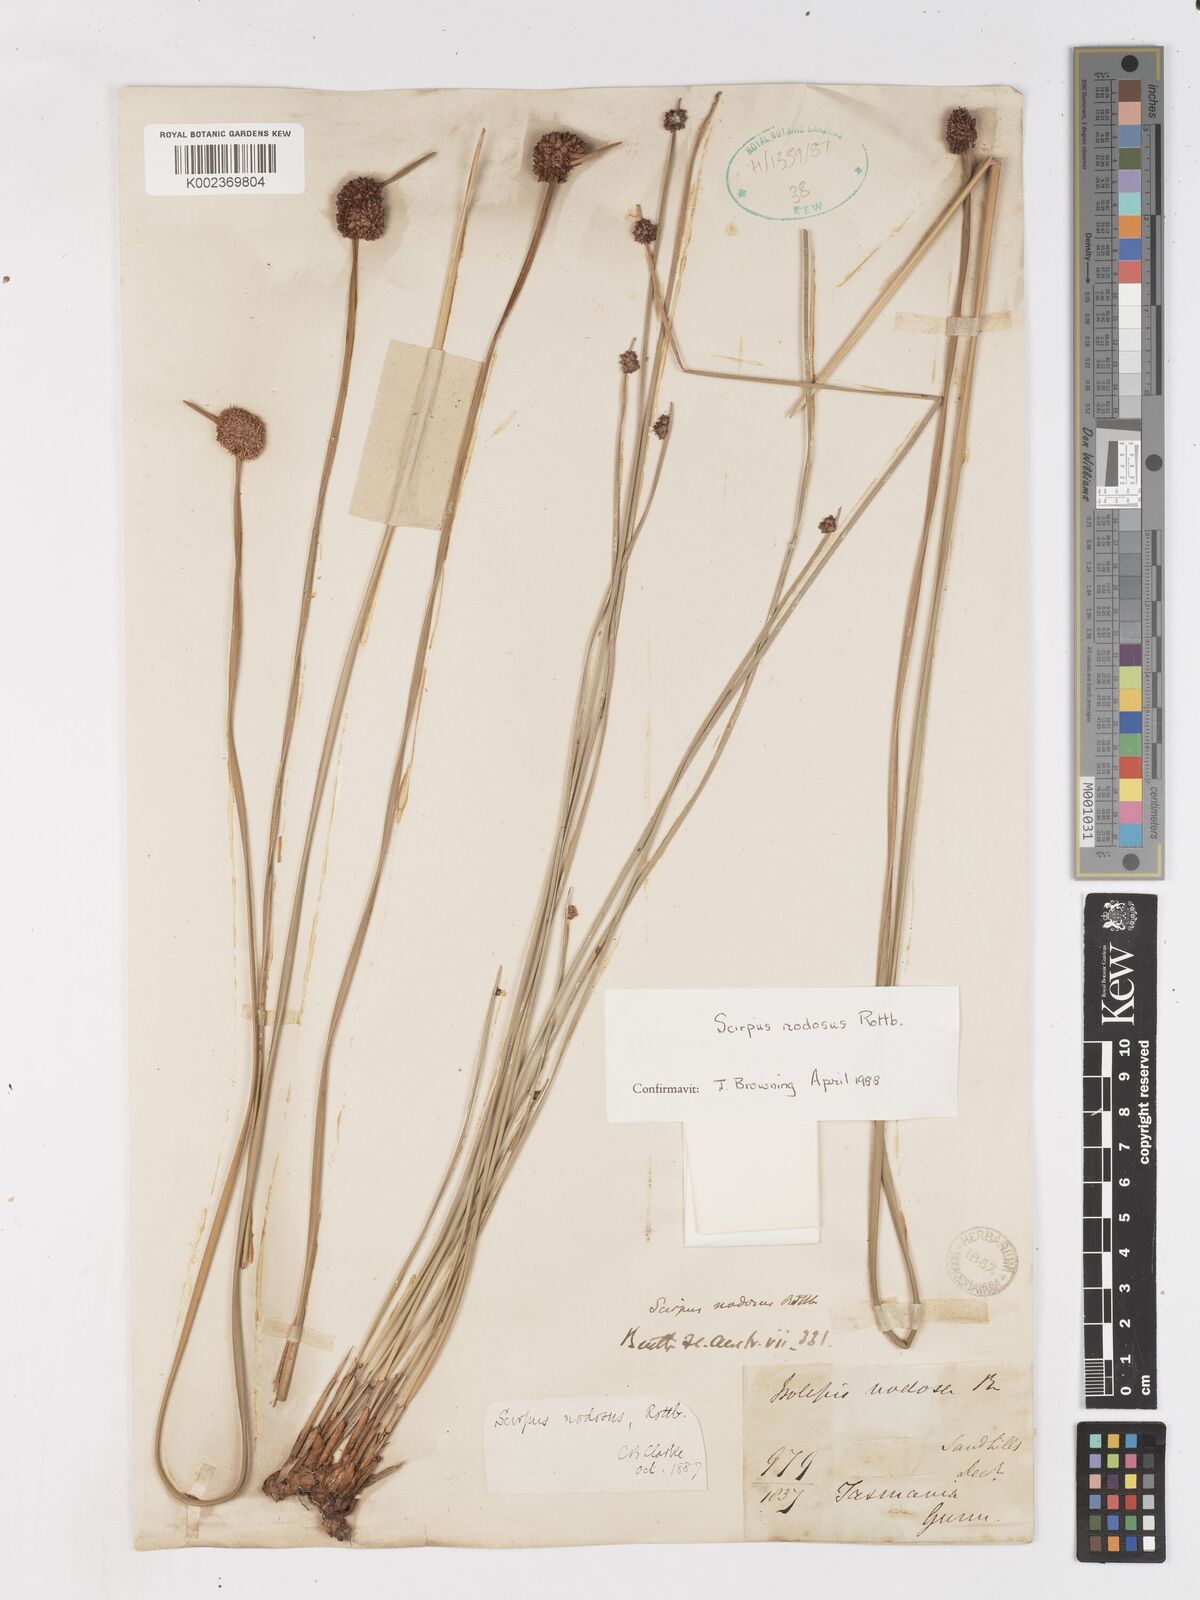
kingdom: Plantae
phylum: Tracheophyta
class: Liliopsida
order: Poales
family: Cyperaceae
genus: Ficinia
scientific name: Ficinia nodosa
